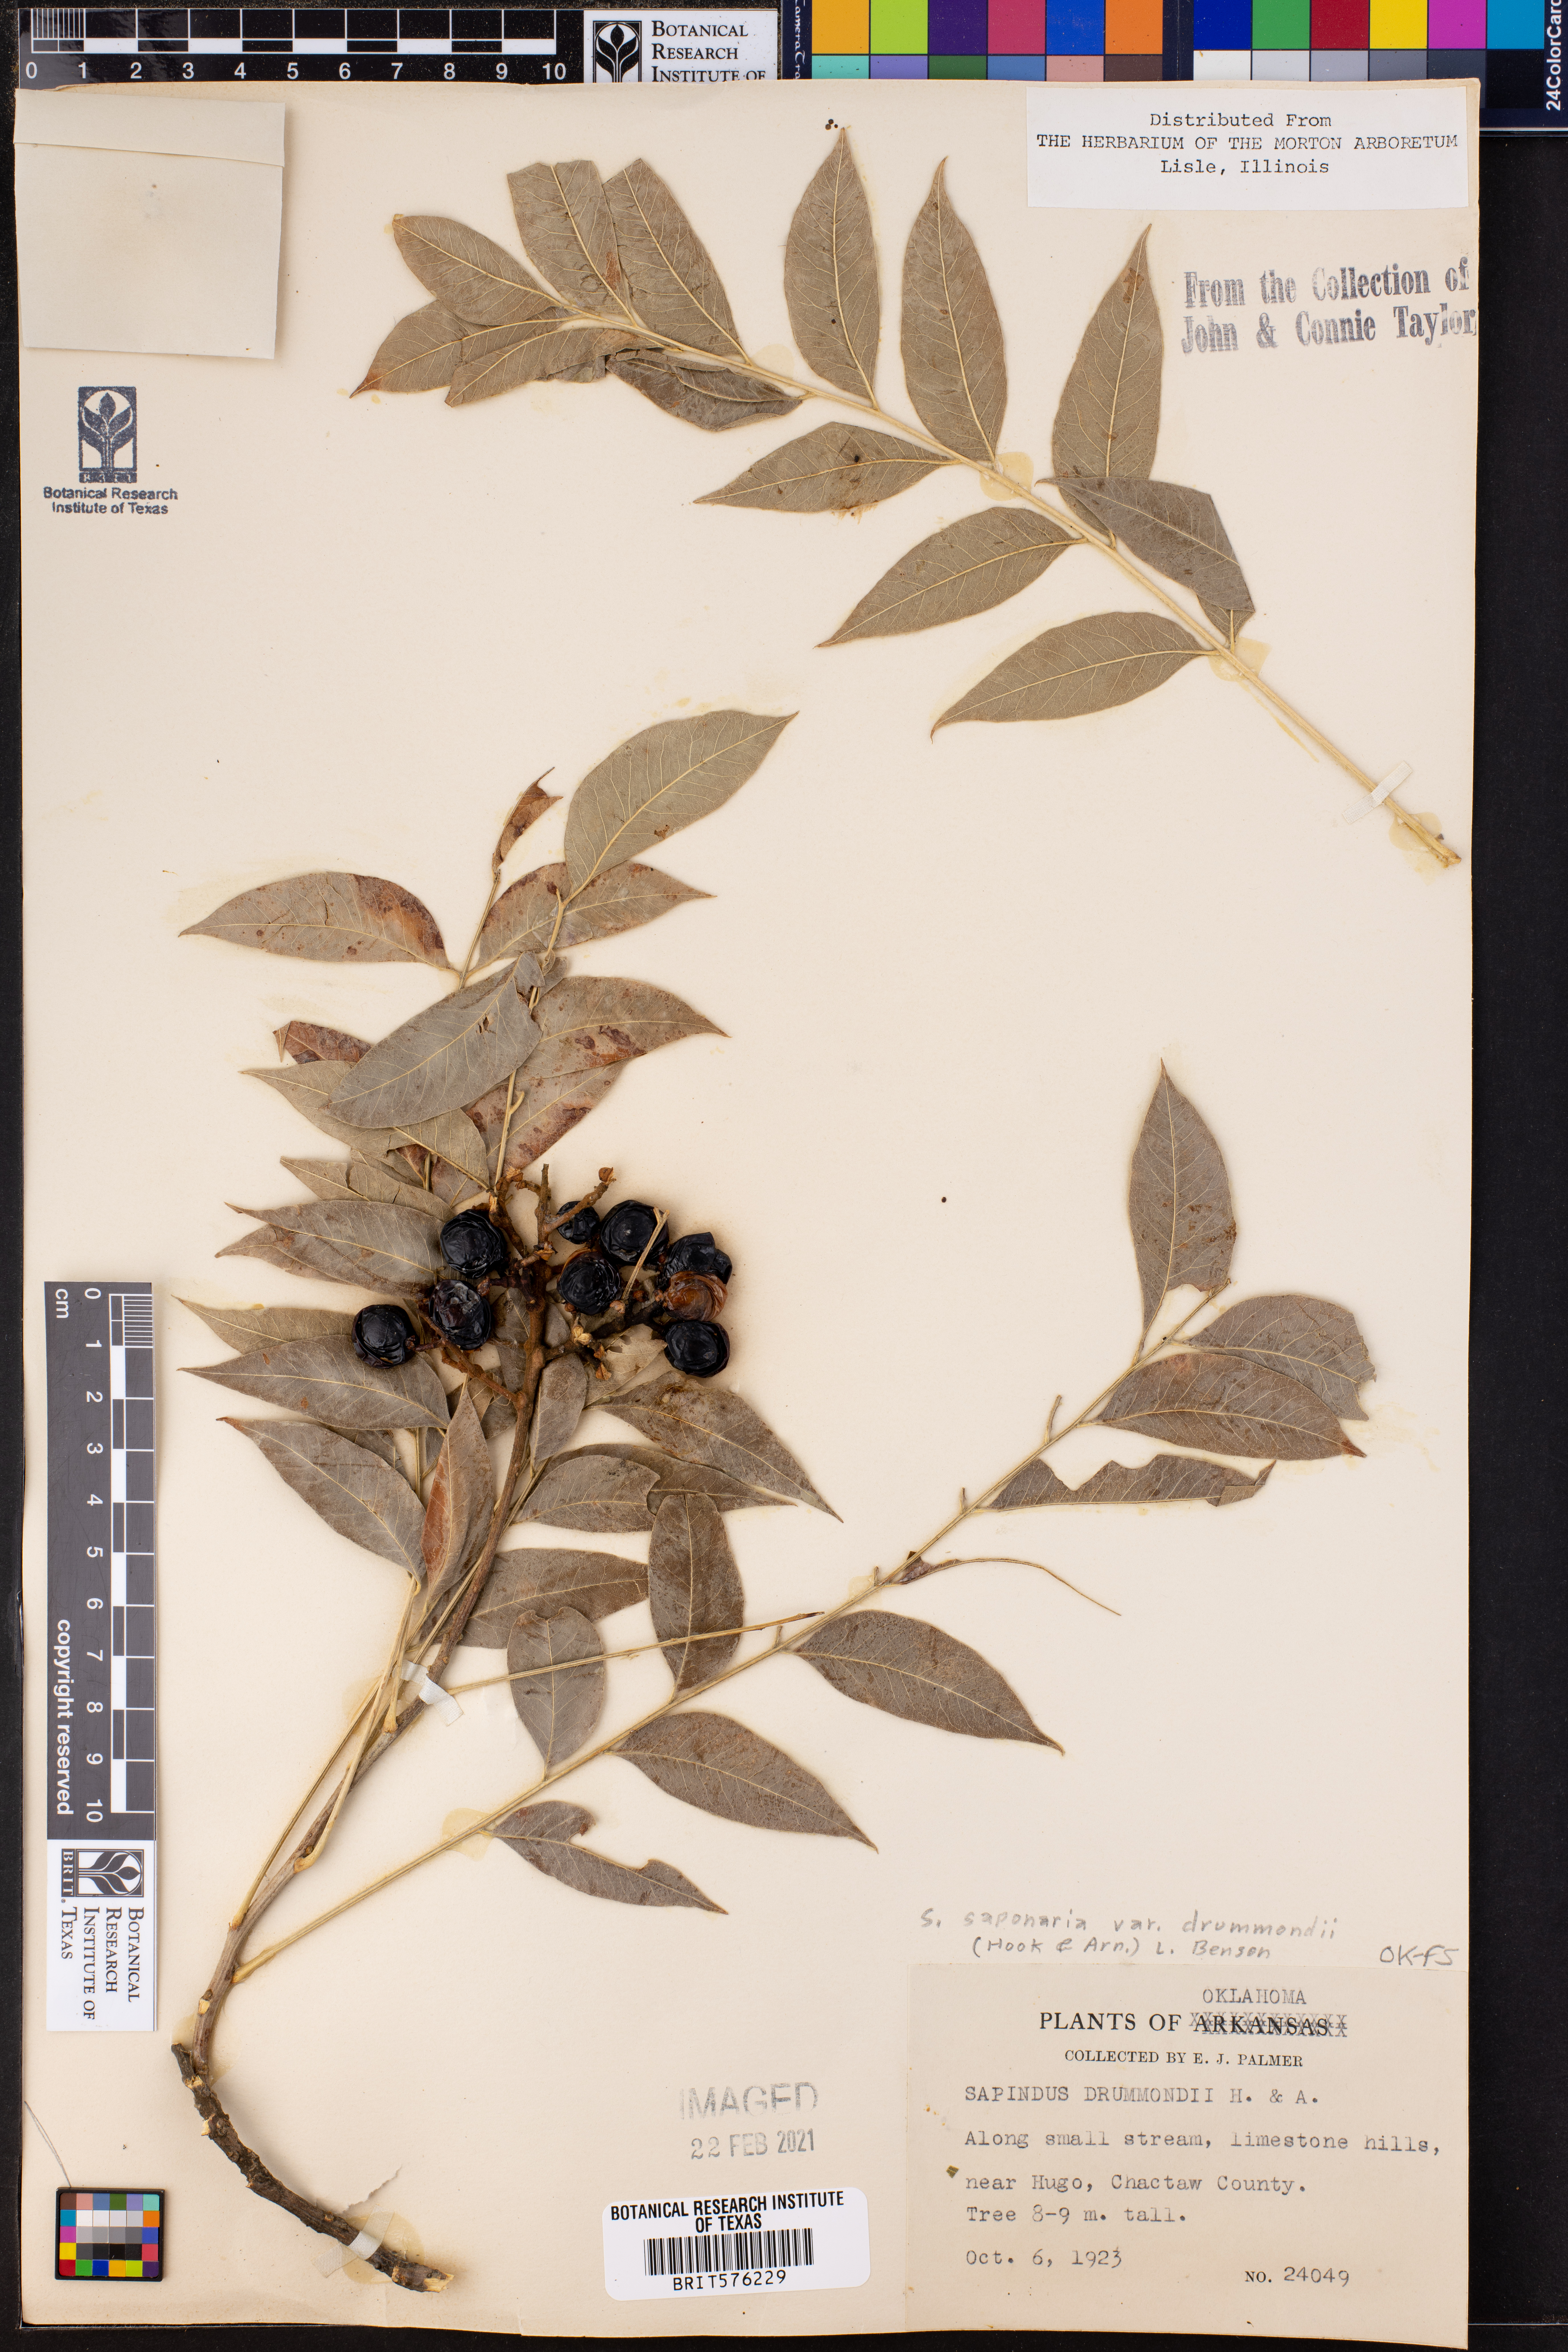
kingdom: Plantae
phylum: Tracheophyta
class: Magnoliopsida
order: Sapindales
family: Sapindaceae
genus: Sapindus
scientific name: Sapindus drummondii
